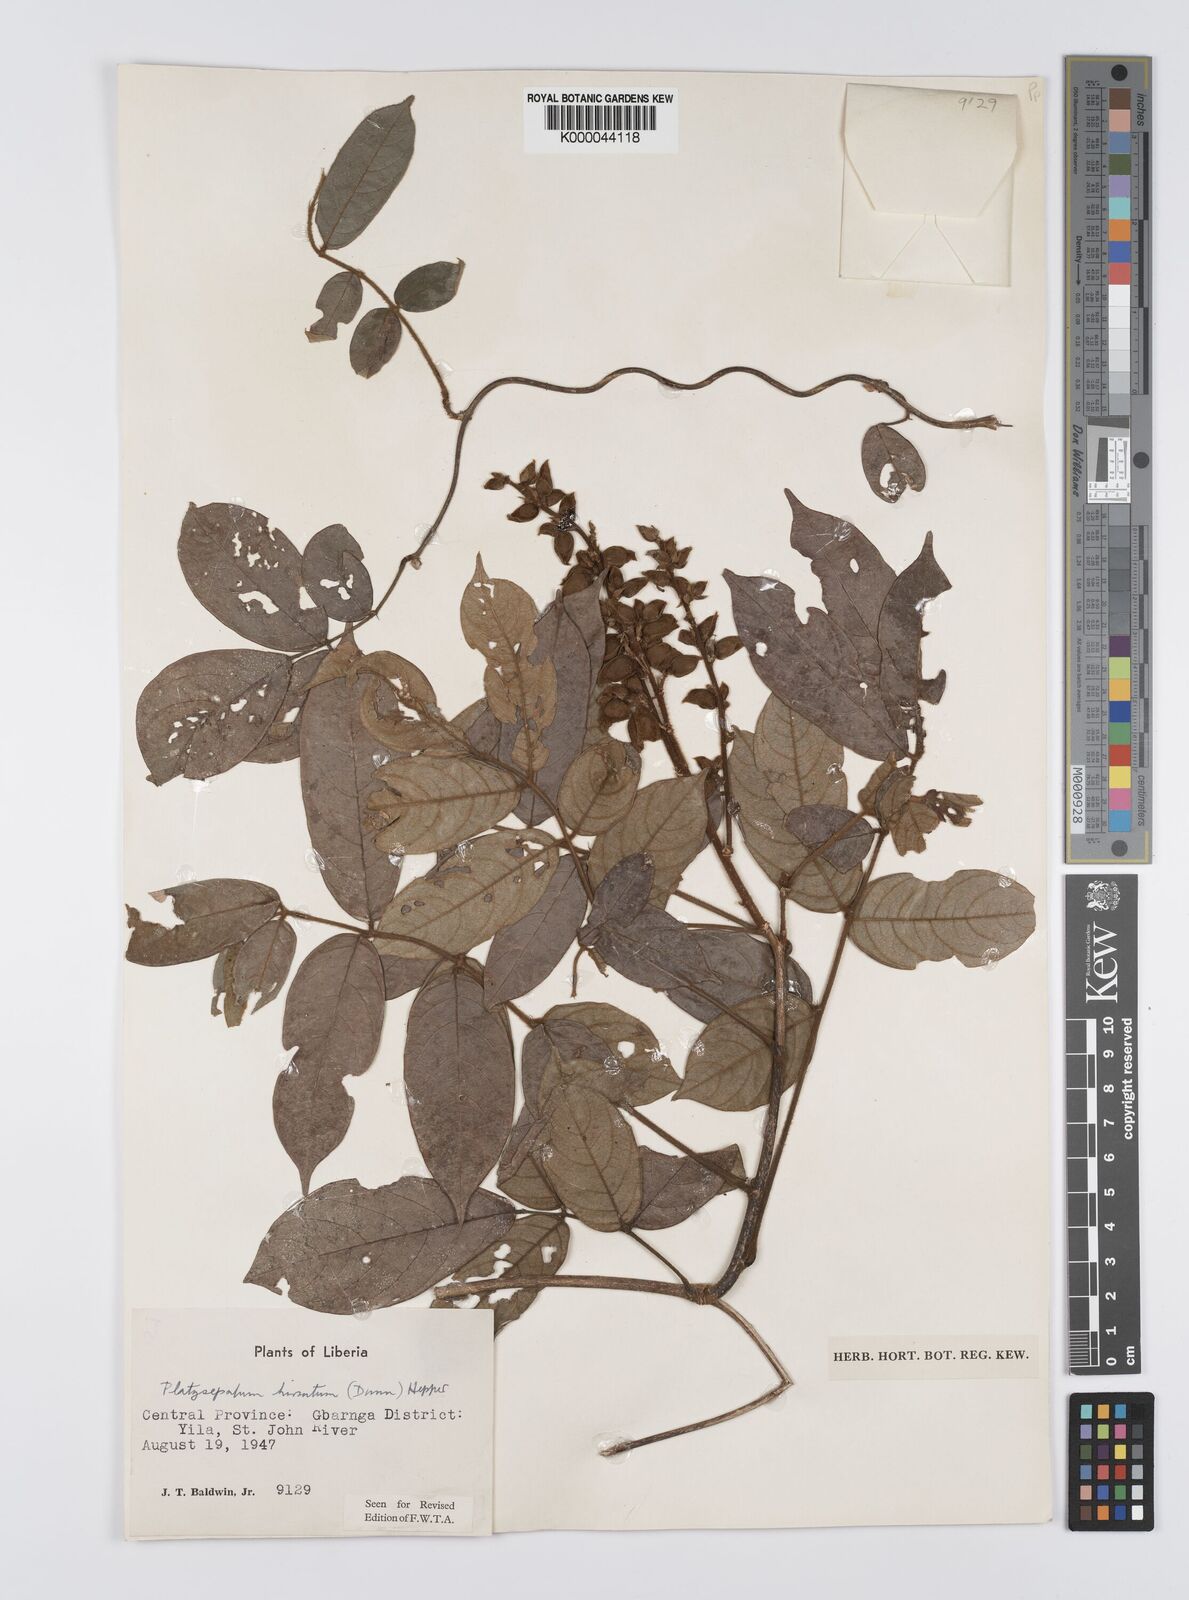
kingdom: Plantae
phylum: Tracheophyta
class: Magnoliopsida
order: Fabales
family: Fabaceae
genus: Platysepalum
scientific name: Platysepalum hirsutum
